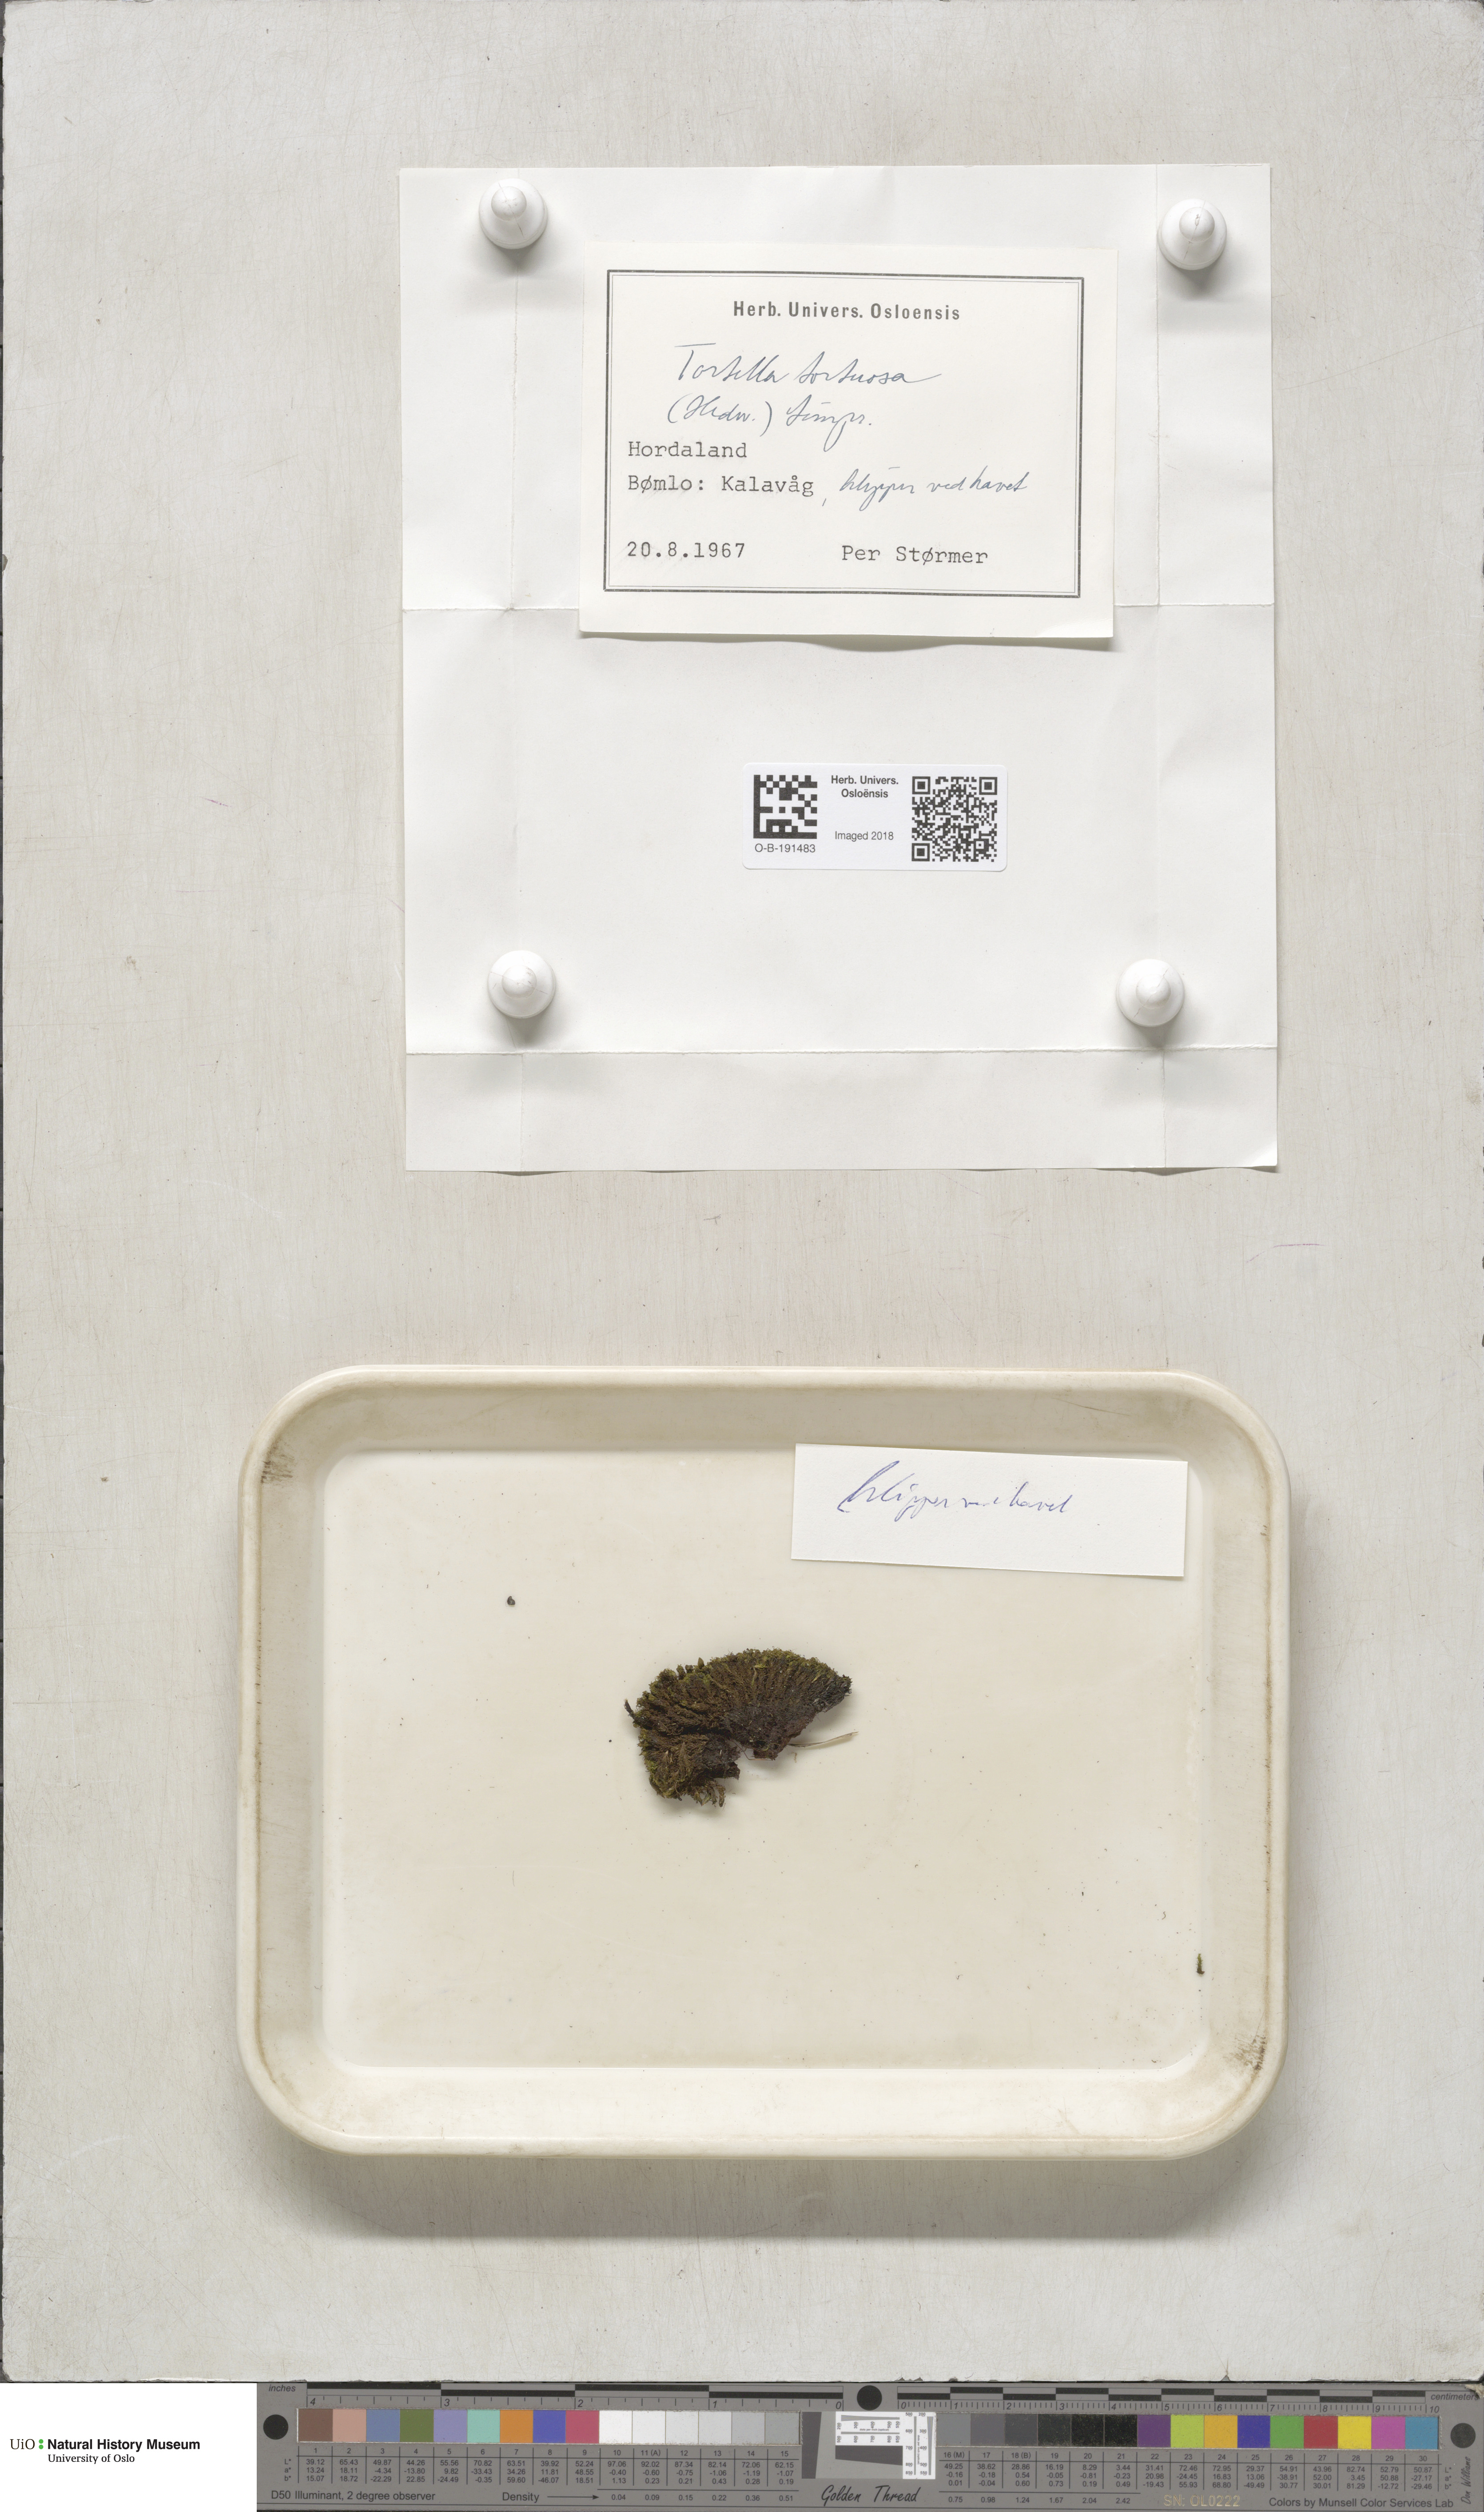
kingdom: Plantae
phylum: Bryophyta
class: Bryopsida
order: Pottiales
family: Pottiaceae
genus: Tortella
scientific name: Tortella tortuosa
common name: Frizzled crisp moss
